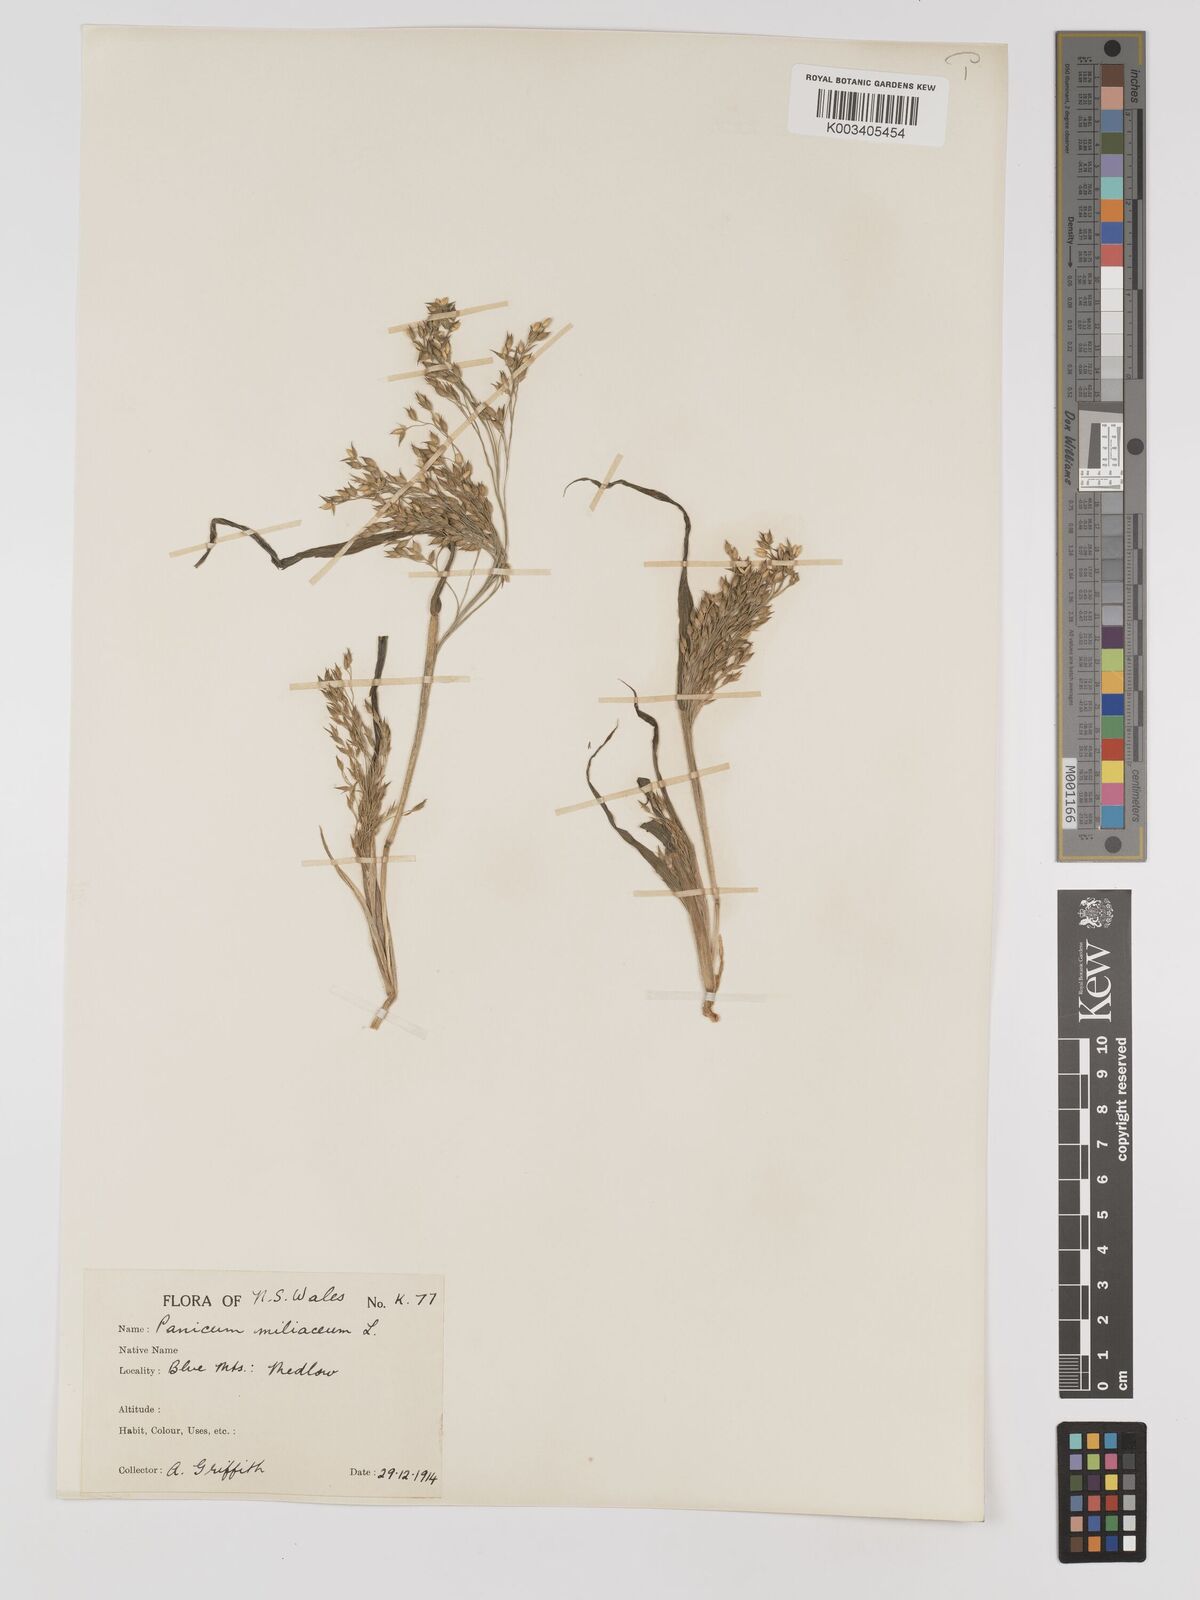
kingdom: Plantae
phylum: Tracheophyta
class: Liliopsida
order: Poales
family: Poaceae
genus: Panicum
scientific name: Panicum miliaceum
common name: Common millet
